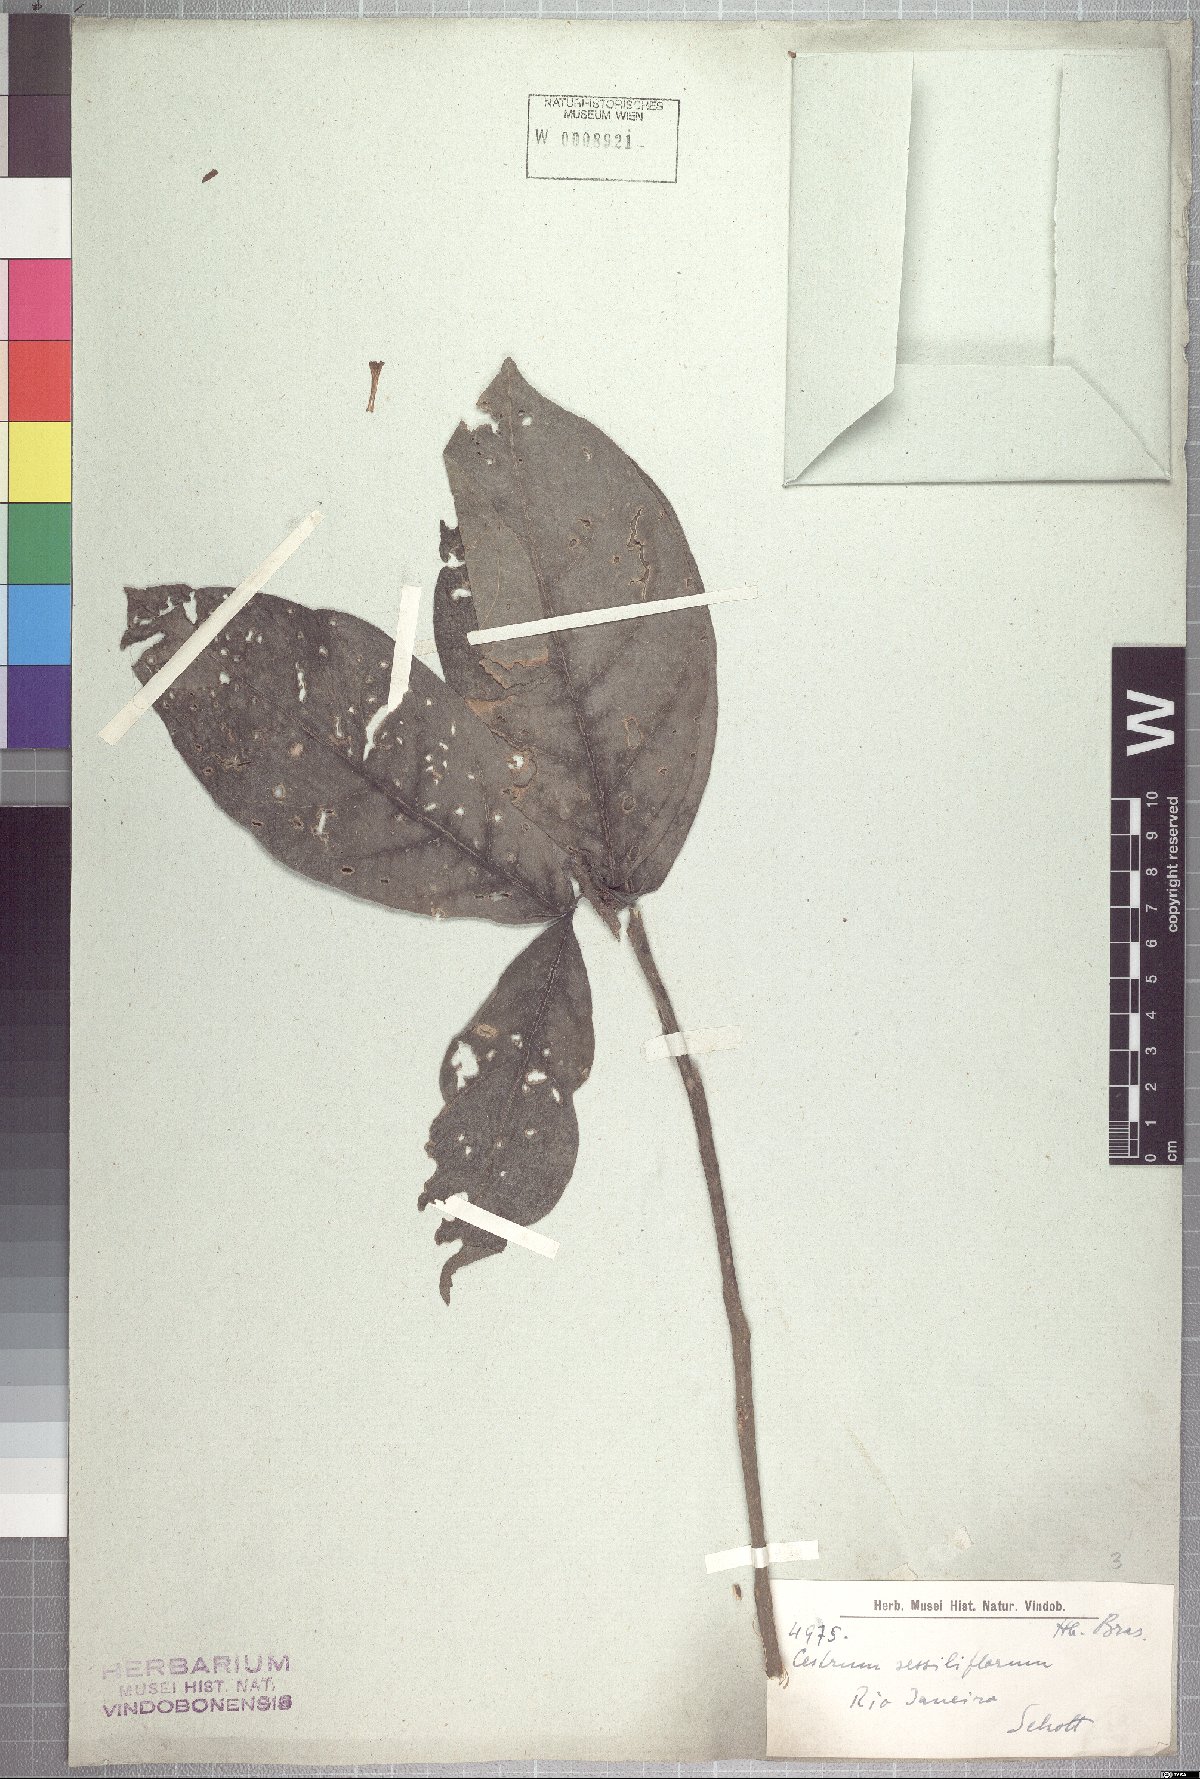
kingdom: Plantae
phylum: Tracheophyta
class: Magnoliopsida
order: Solanales
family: Solanaceae
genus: Cestrum
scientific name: Cestrum schlechtendalii
